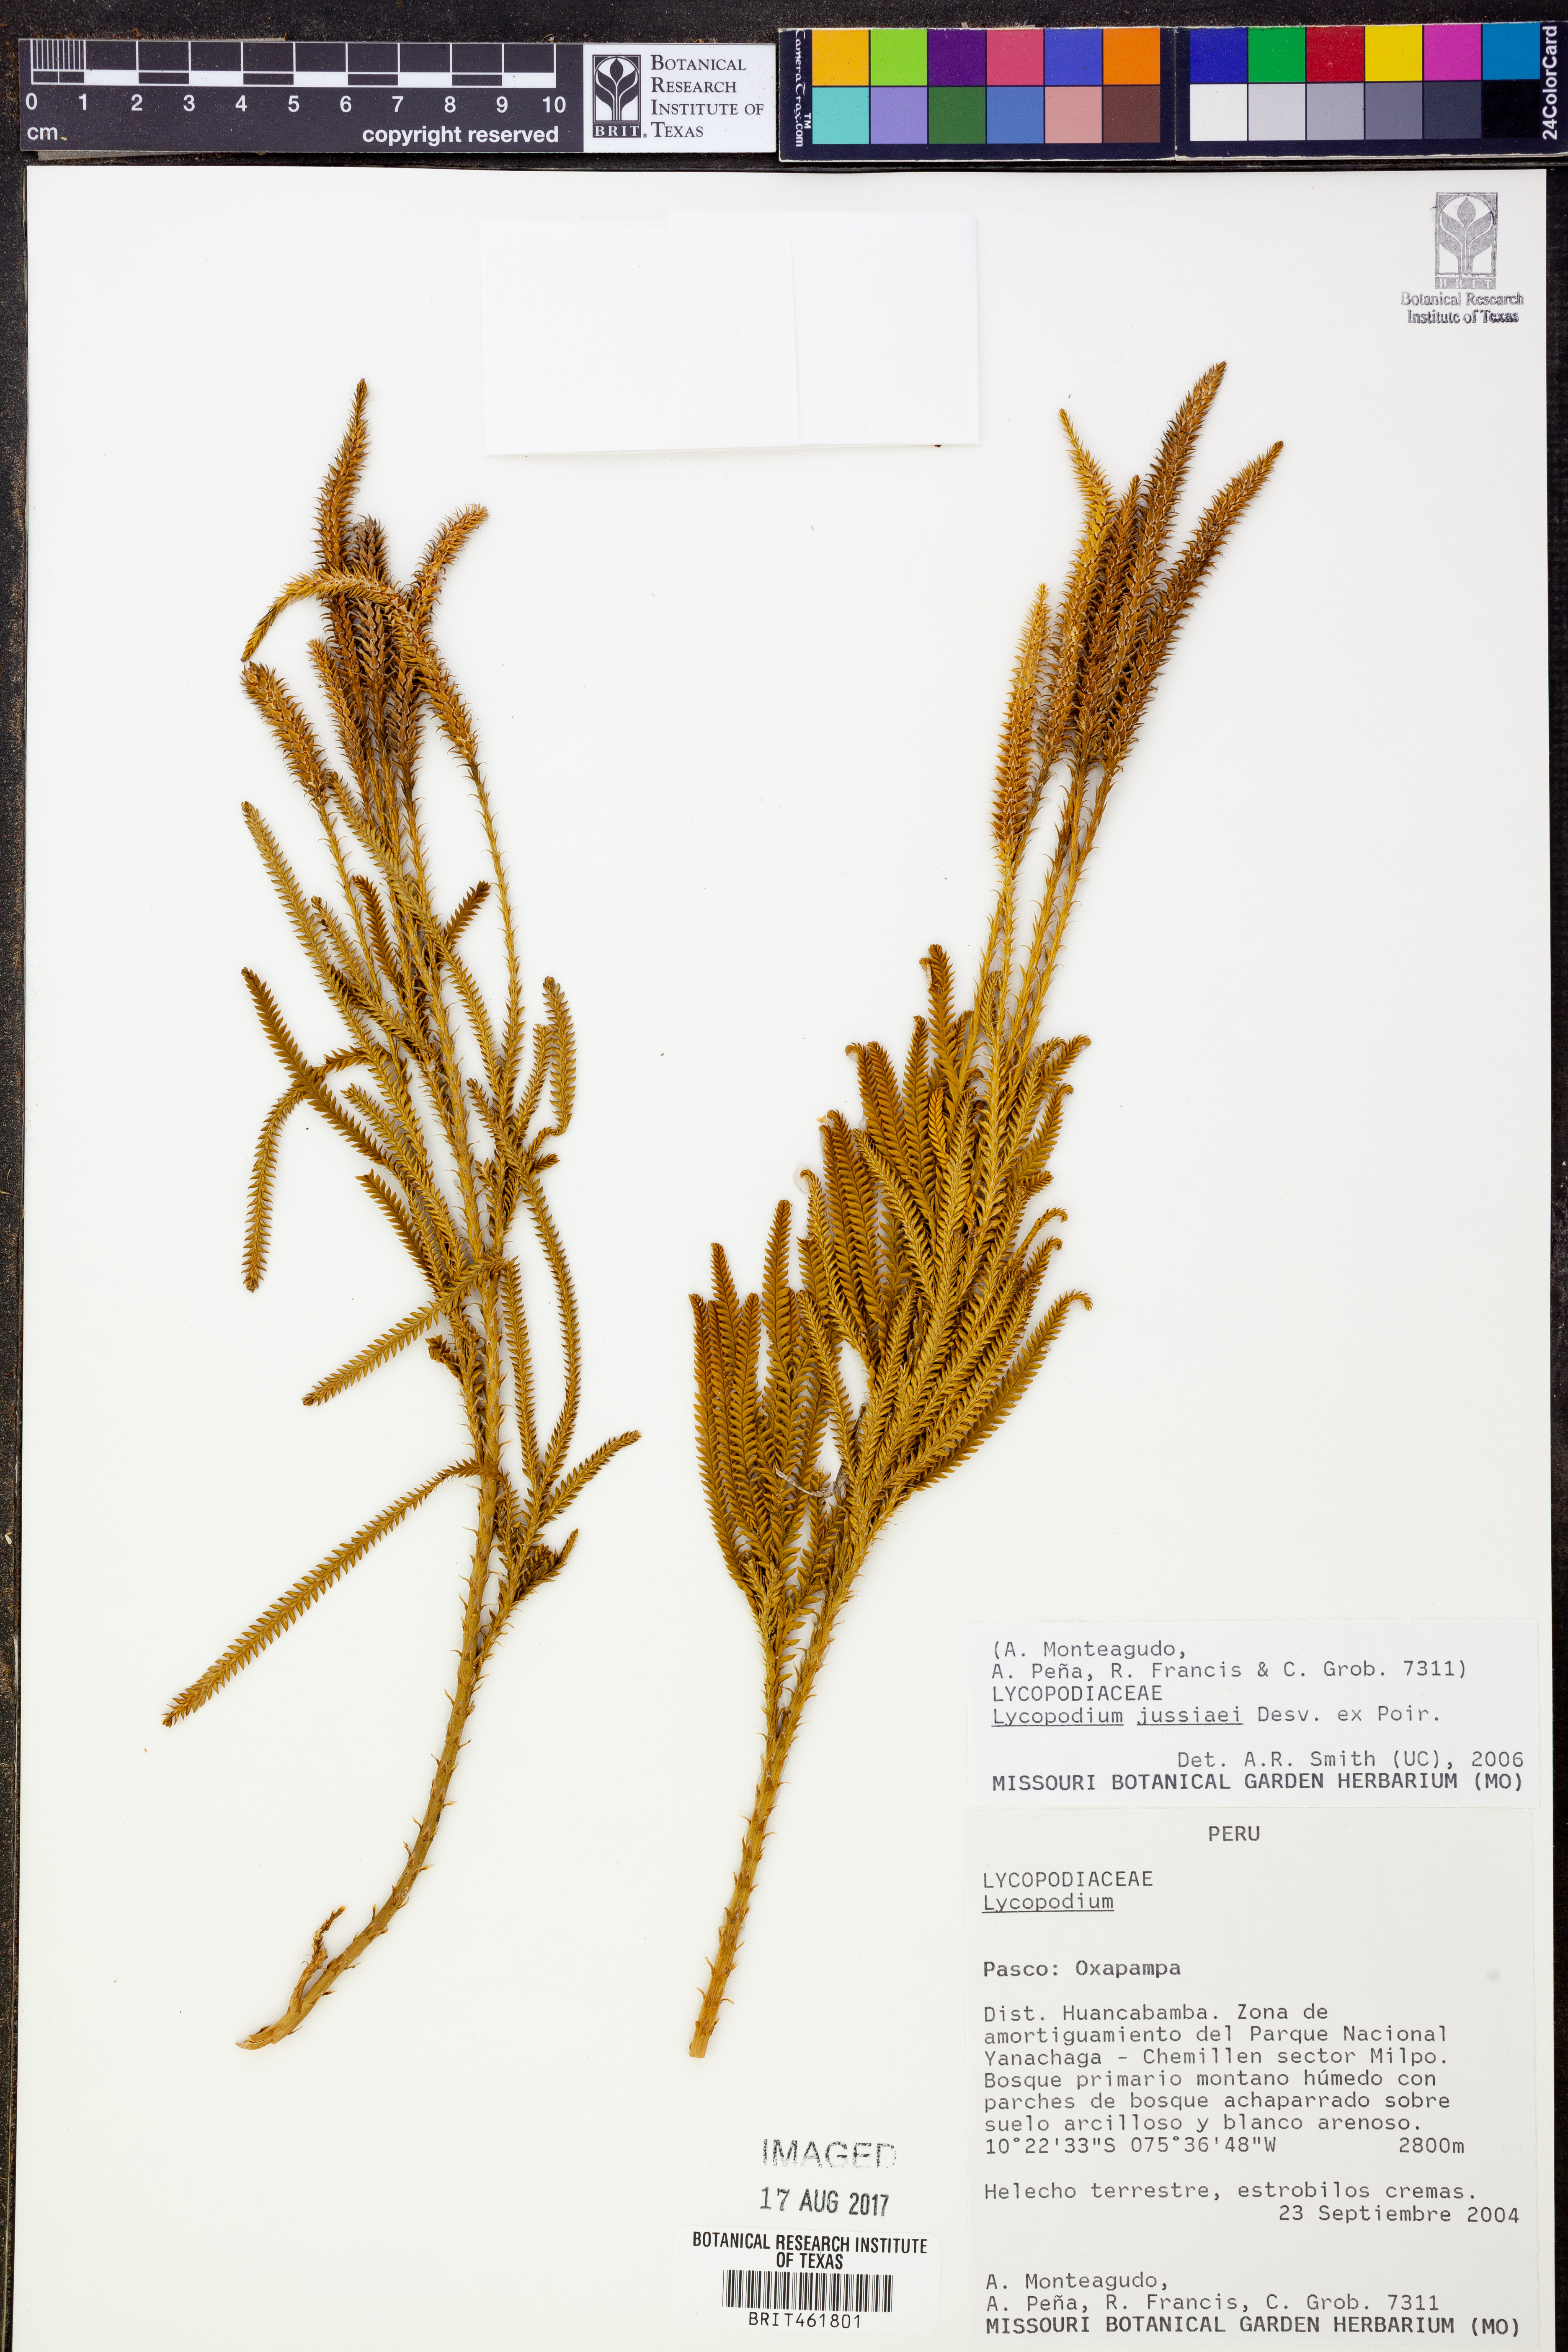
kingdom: Plantae
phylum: Tracheophyta
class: Lycopodiopsida
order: Lycopodiales
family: Lycopodiaceae
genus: Diphasium
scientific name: Diphasium jussiaei
